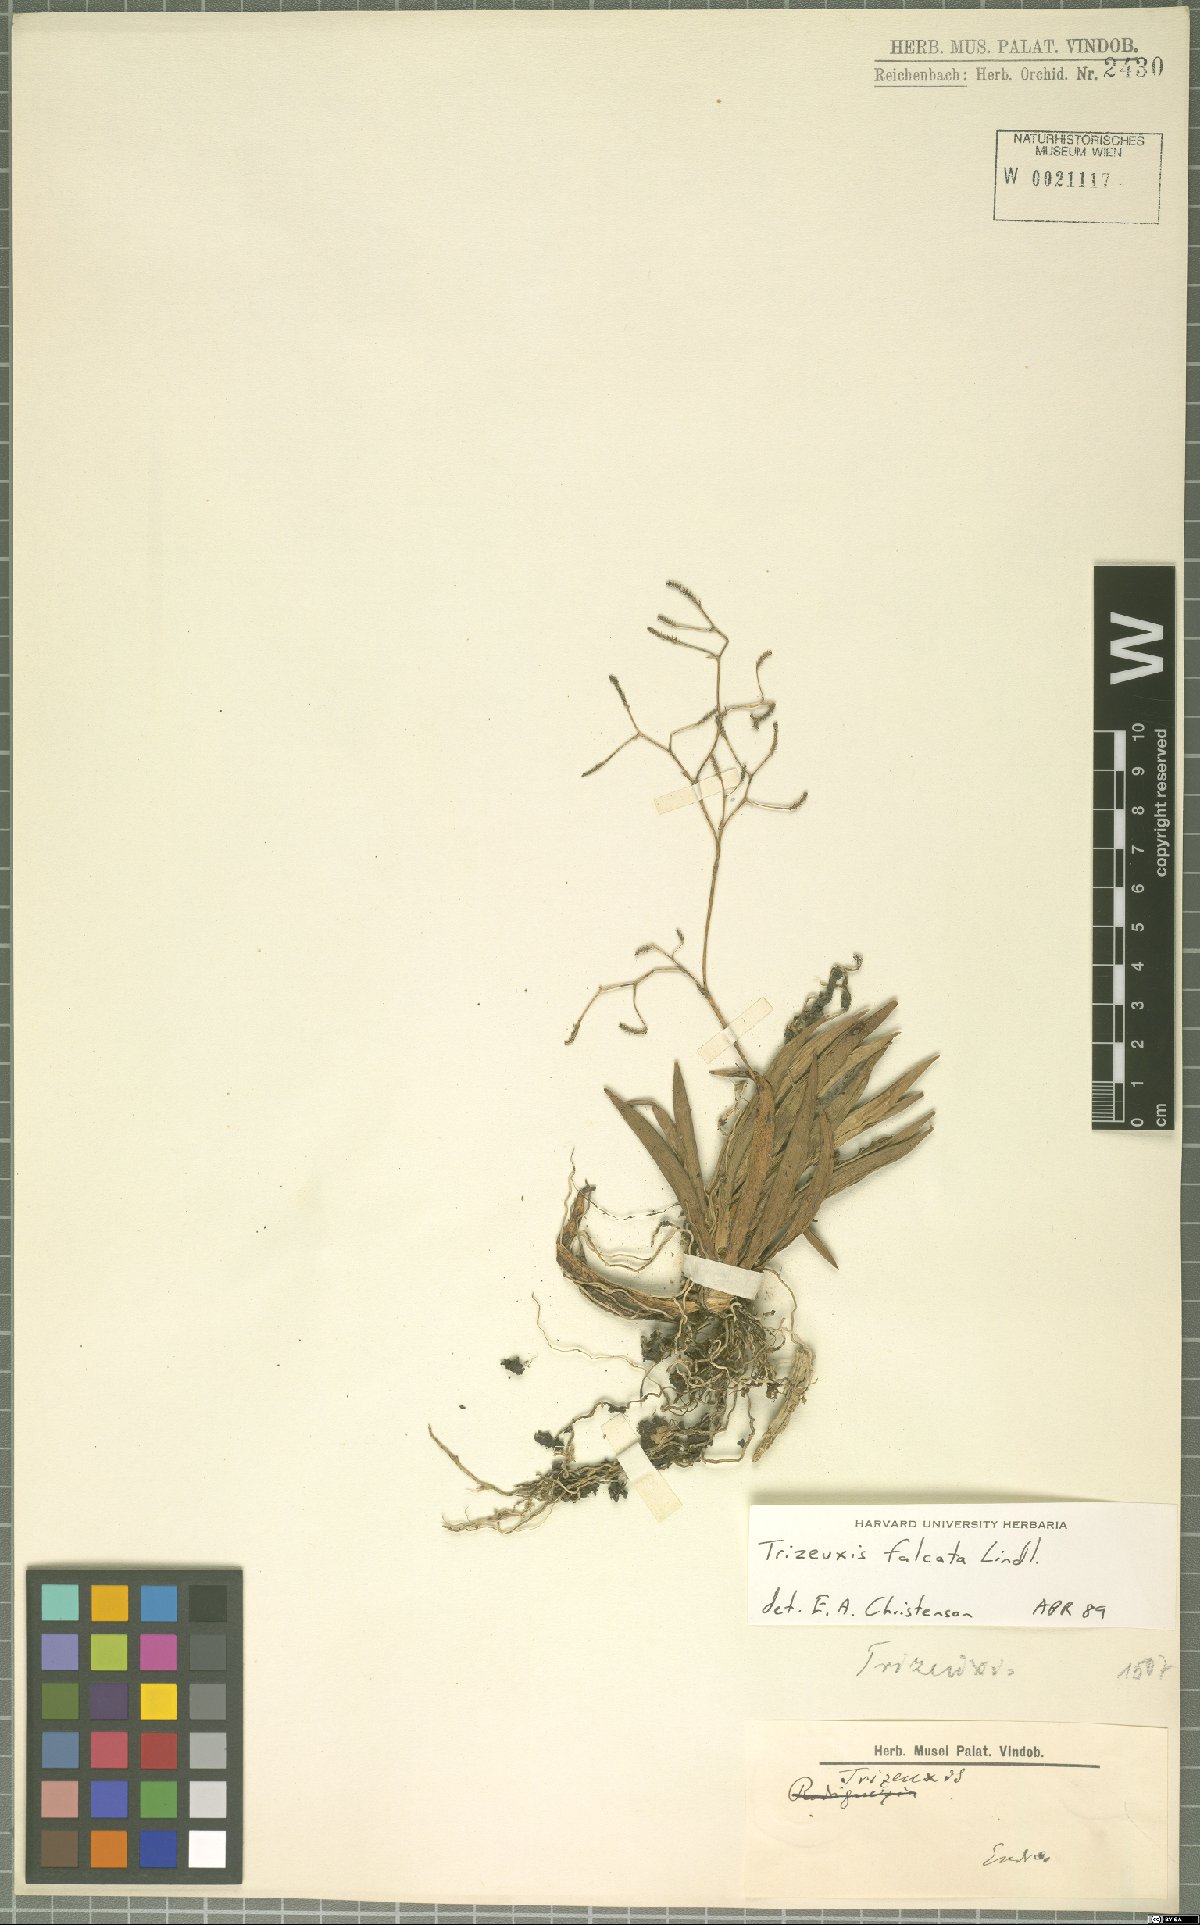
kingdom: Plantae
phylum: Tracheophyta
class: Liliopsida
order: Asparagales
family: Orchidaceae
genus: Trizeuxis
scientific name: Trizeuxis falcata
